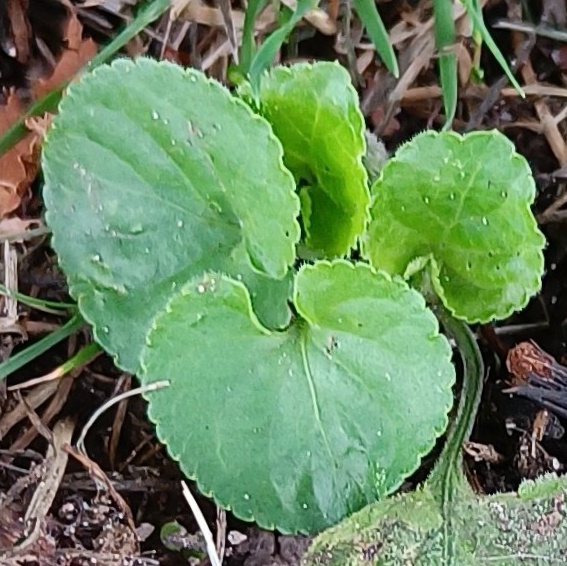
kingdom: Plantae
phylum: Tracheophyta
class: Magnoliopsida
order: Malpighiales
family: Violaceae
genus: Viola
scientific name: Viola odorata
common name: Marts-viol
